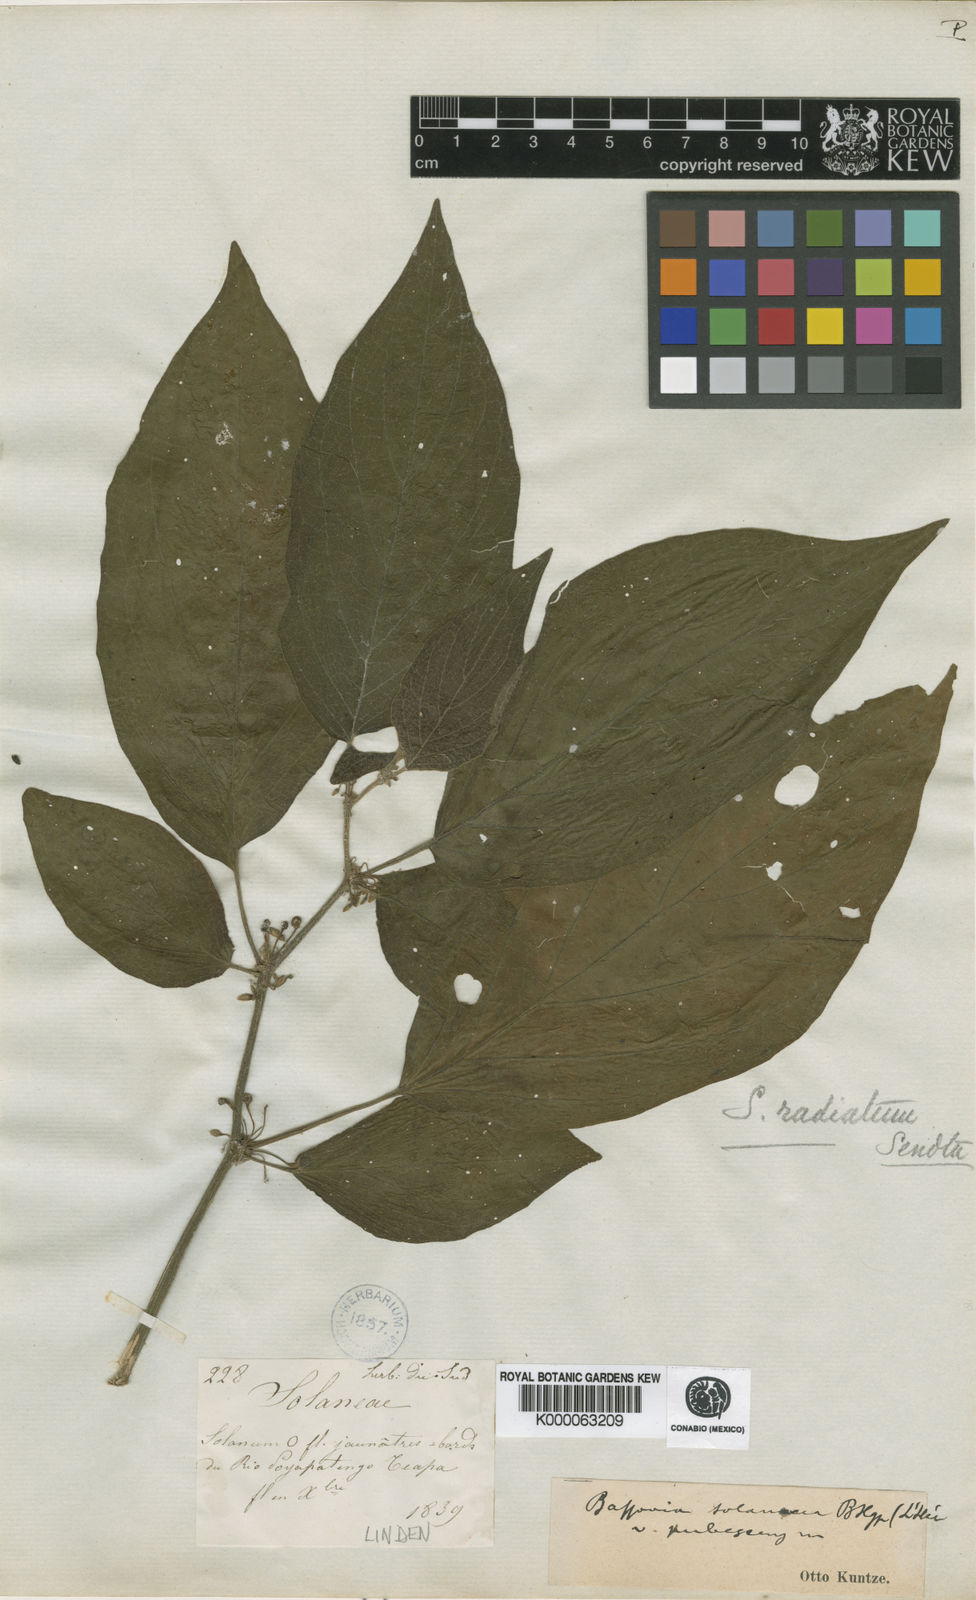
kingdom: Plantae
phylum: Tracheophyta
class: Magnoliopsida
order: Solanales
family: Solanaceae
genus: Solanum
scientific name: Solanum
